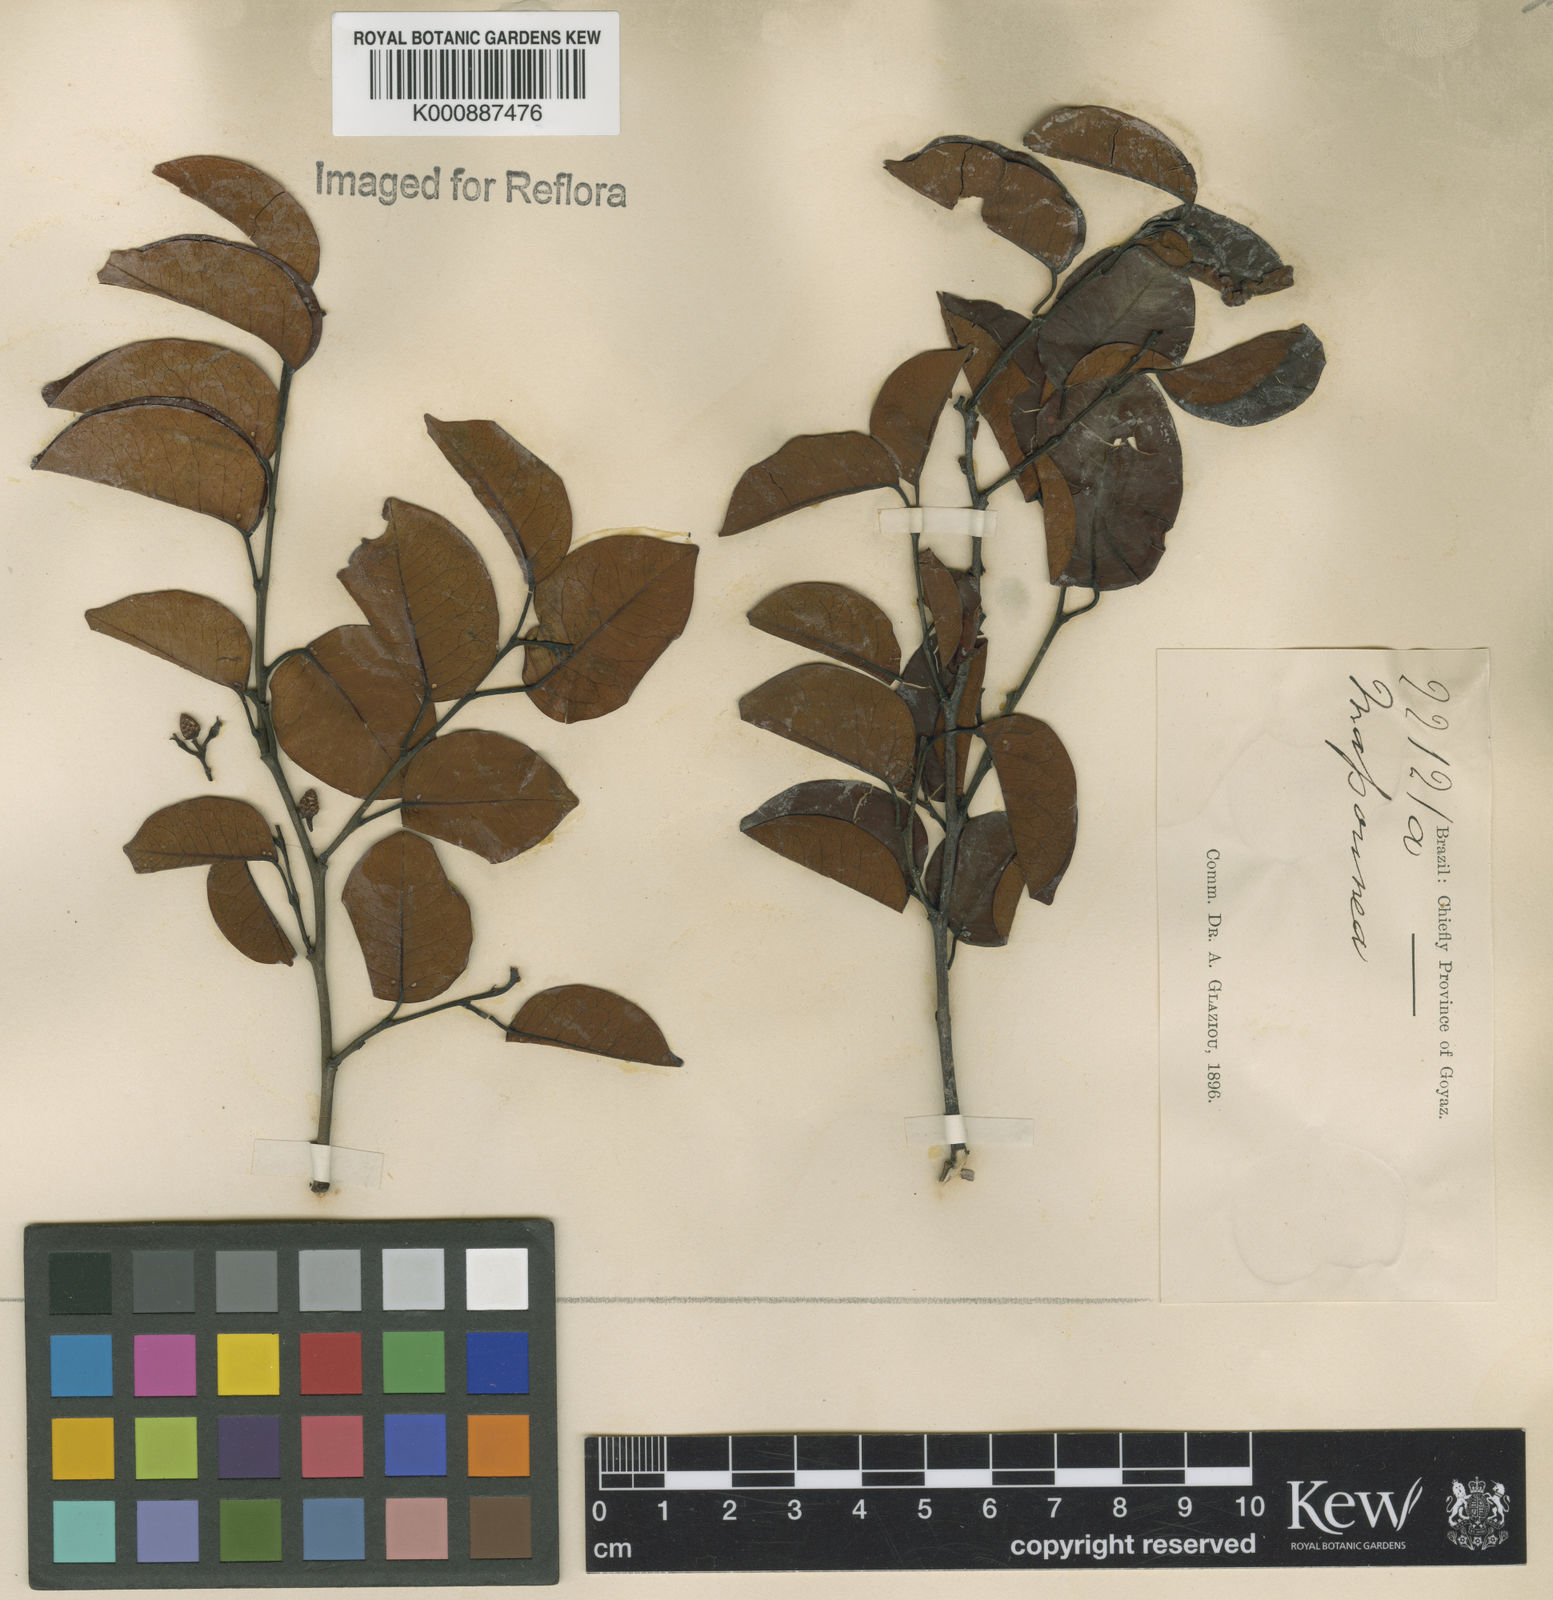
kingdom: Plantae
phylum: Tracheophyta
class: Magnoliopsida
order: Malpighiales
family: Euphorbiaceae
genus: Maprounea
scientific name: Maprounea brasiliensis
